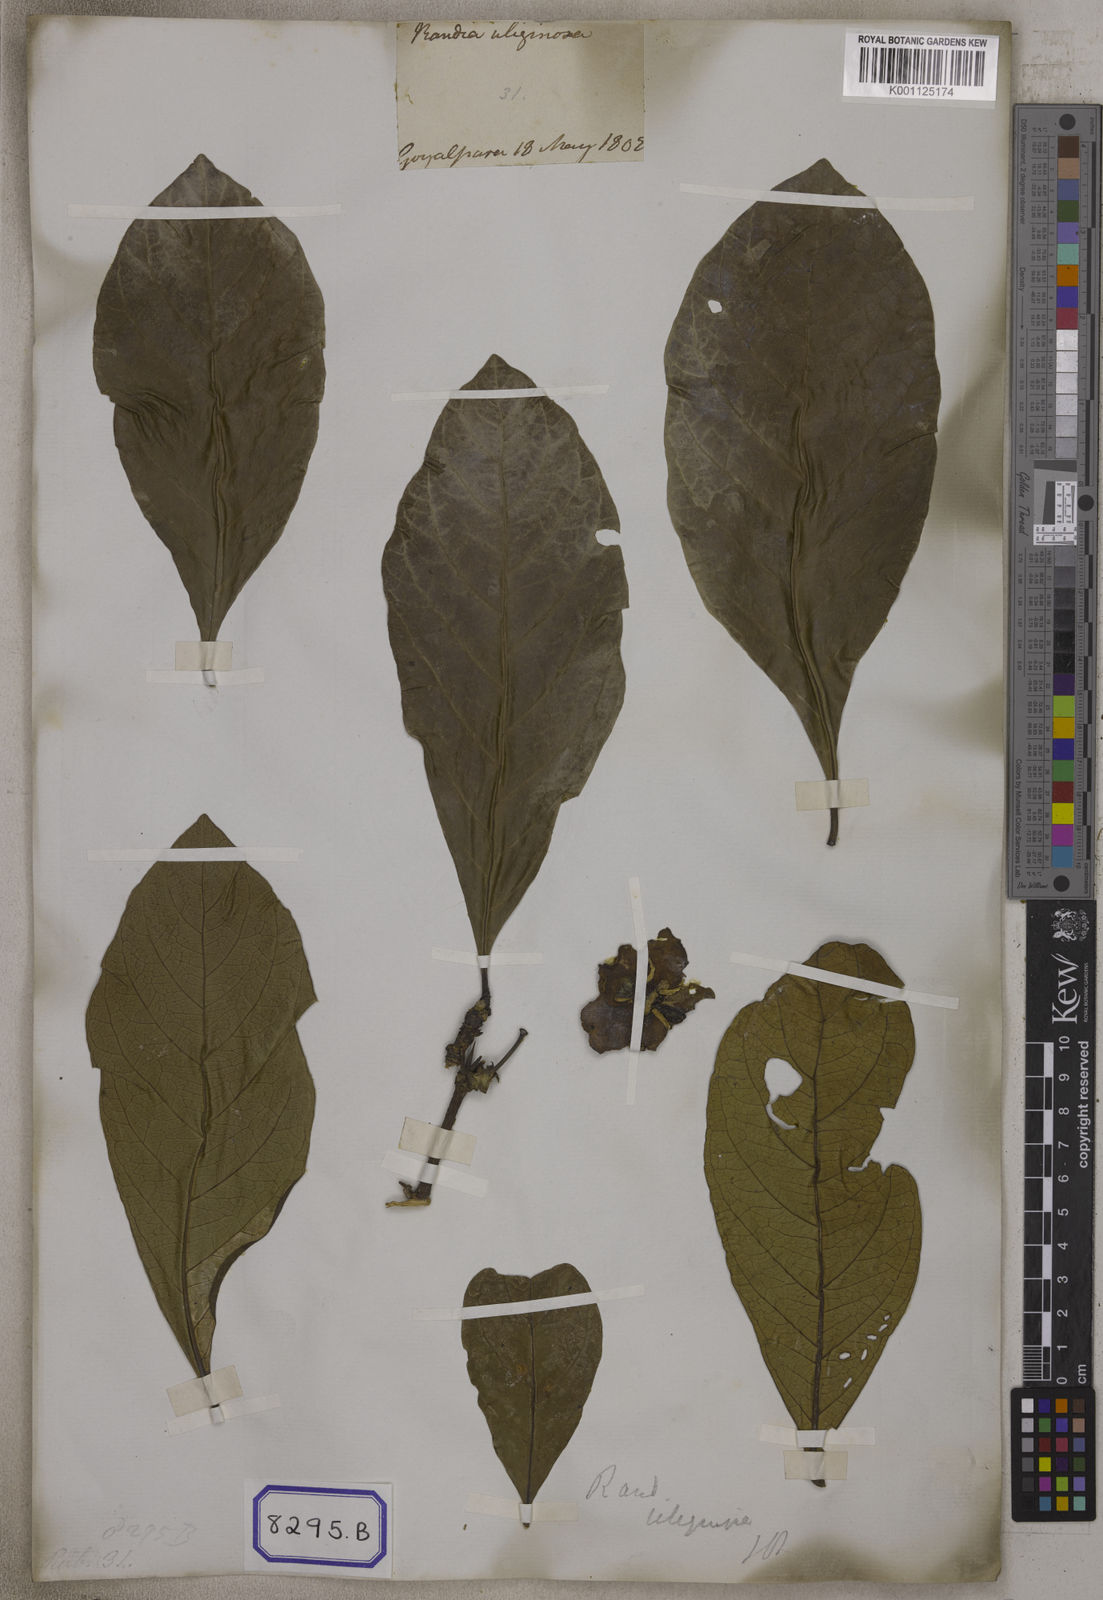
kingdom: Plantae
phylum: Tracheophyta
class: Magnoliopsida
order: Gentianales
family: Rubiaceae
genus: Gardenia
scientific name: Gardenia
